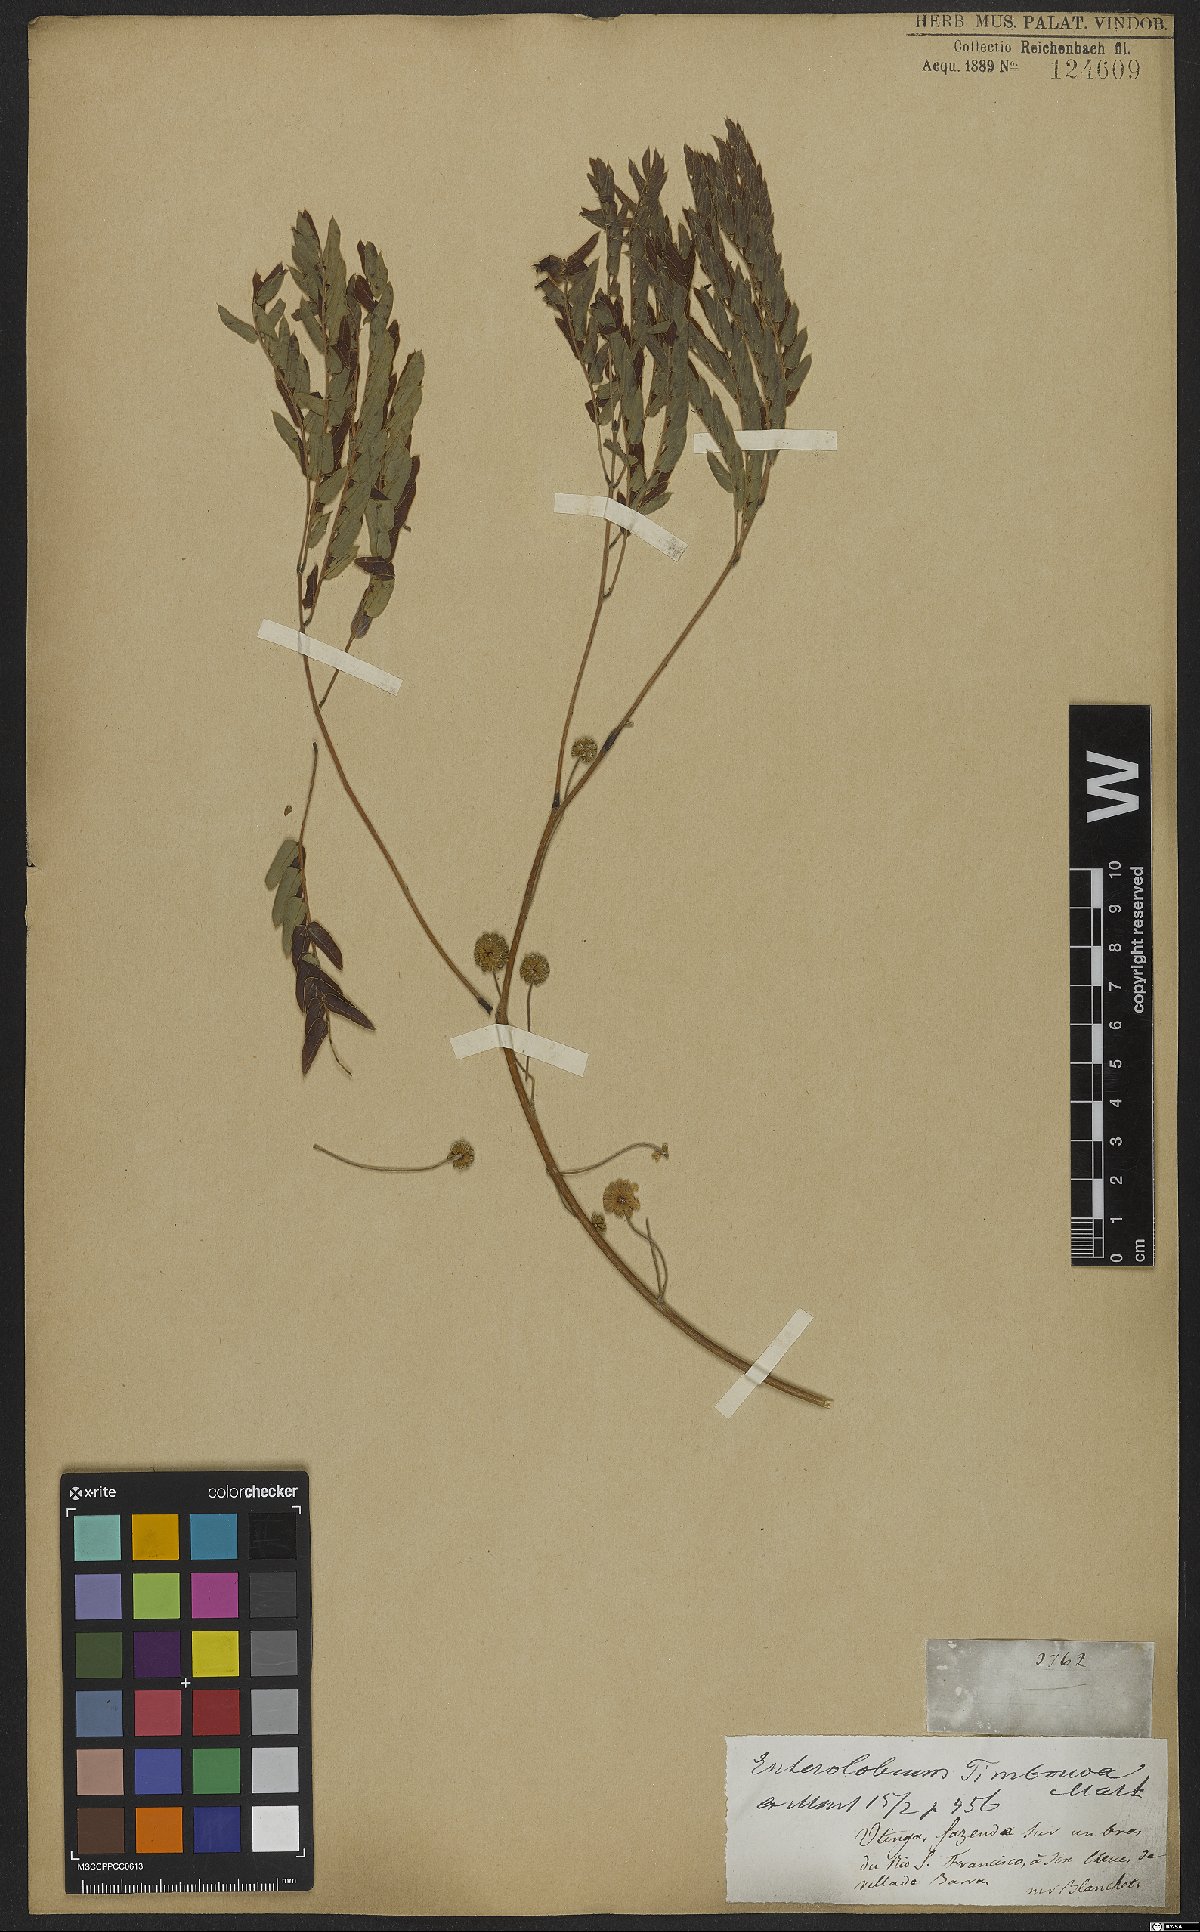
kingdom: Plantae
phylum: Tracheophyta
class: Magnoliopsida
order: Fabales
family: Fabaceae
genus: Enterolobium
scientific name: Enterolobium timbouva
